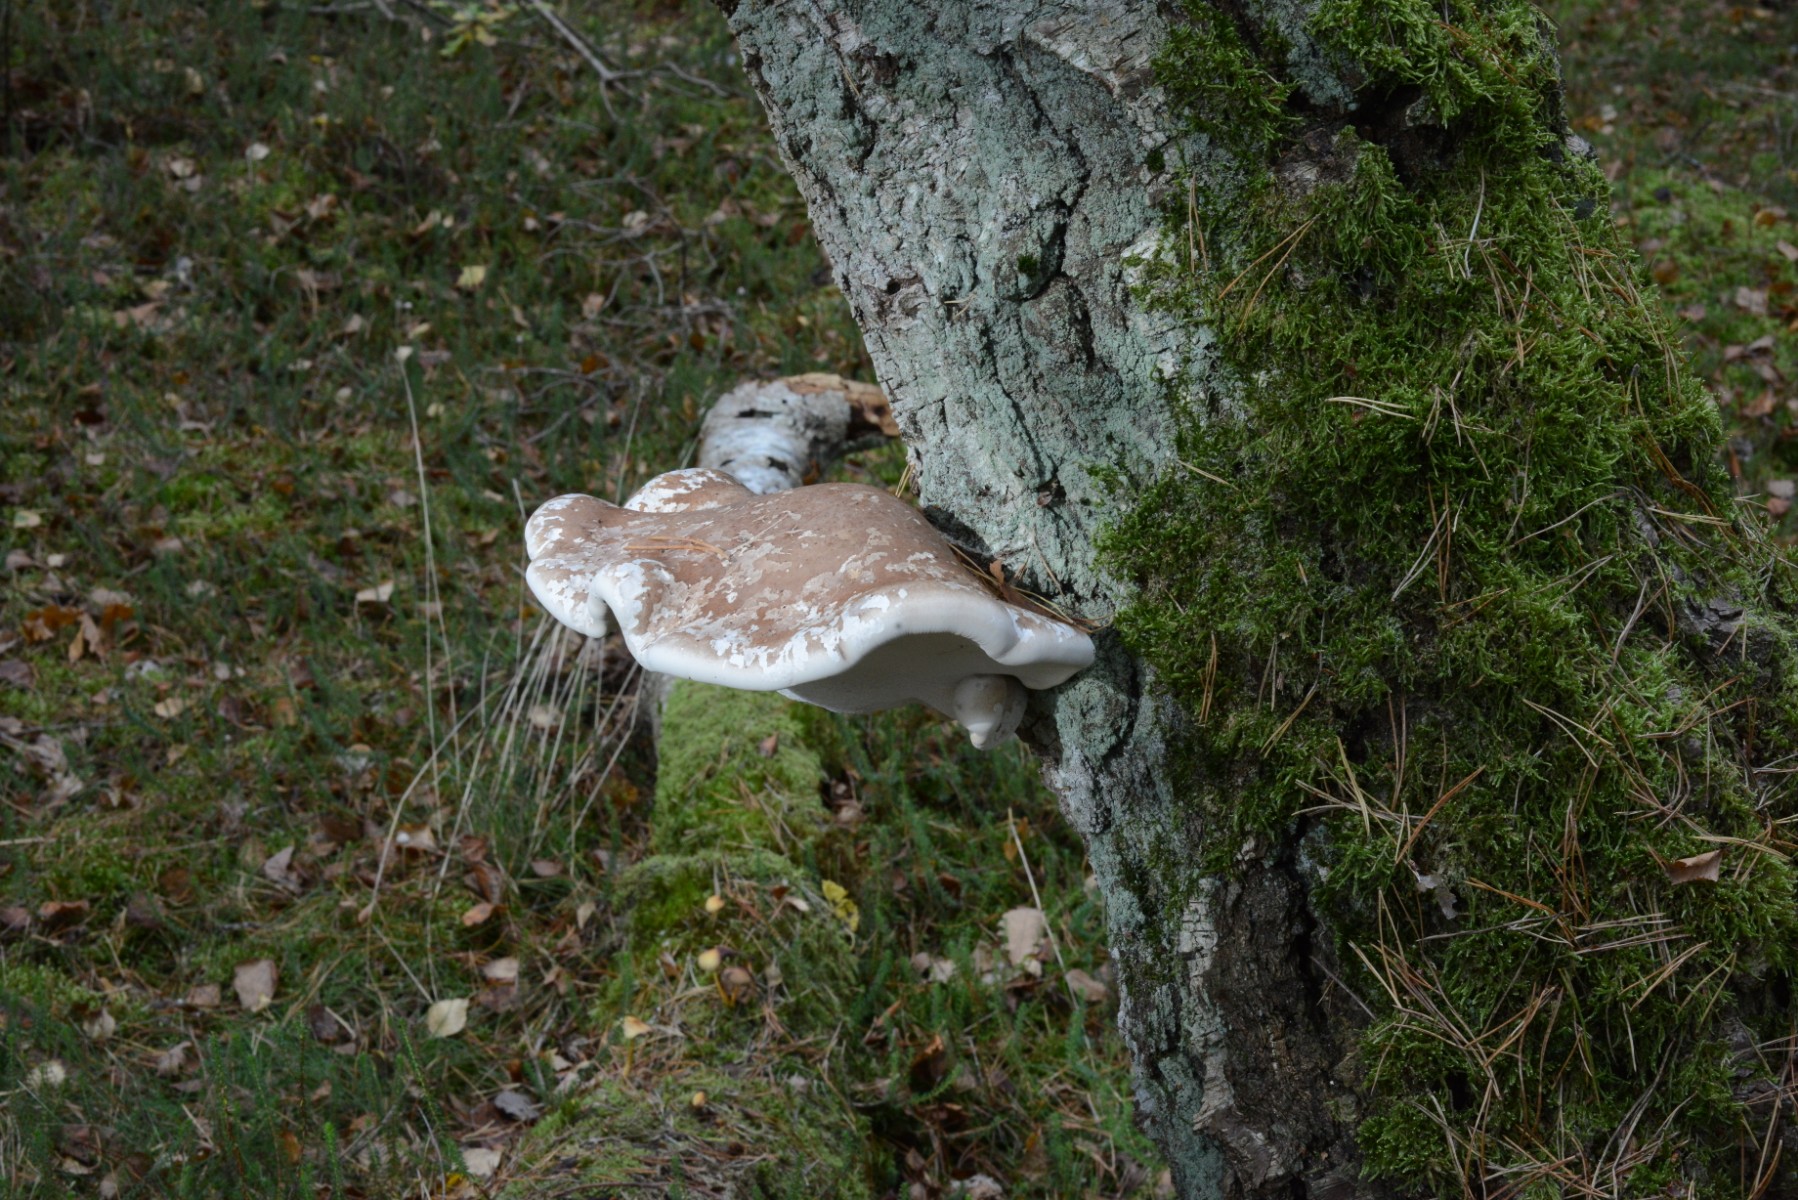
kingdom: Fungi
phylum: Basidiomycota
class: Agaricomycetes
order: Polyporales
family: Fomitopsidaceae
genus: Fomitopsis
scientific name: Fomitopsis betulina
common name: birkeporesvamp
